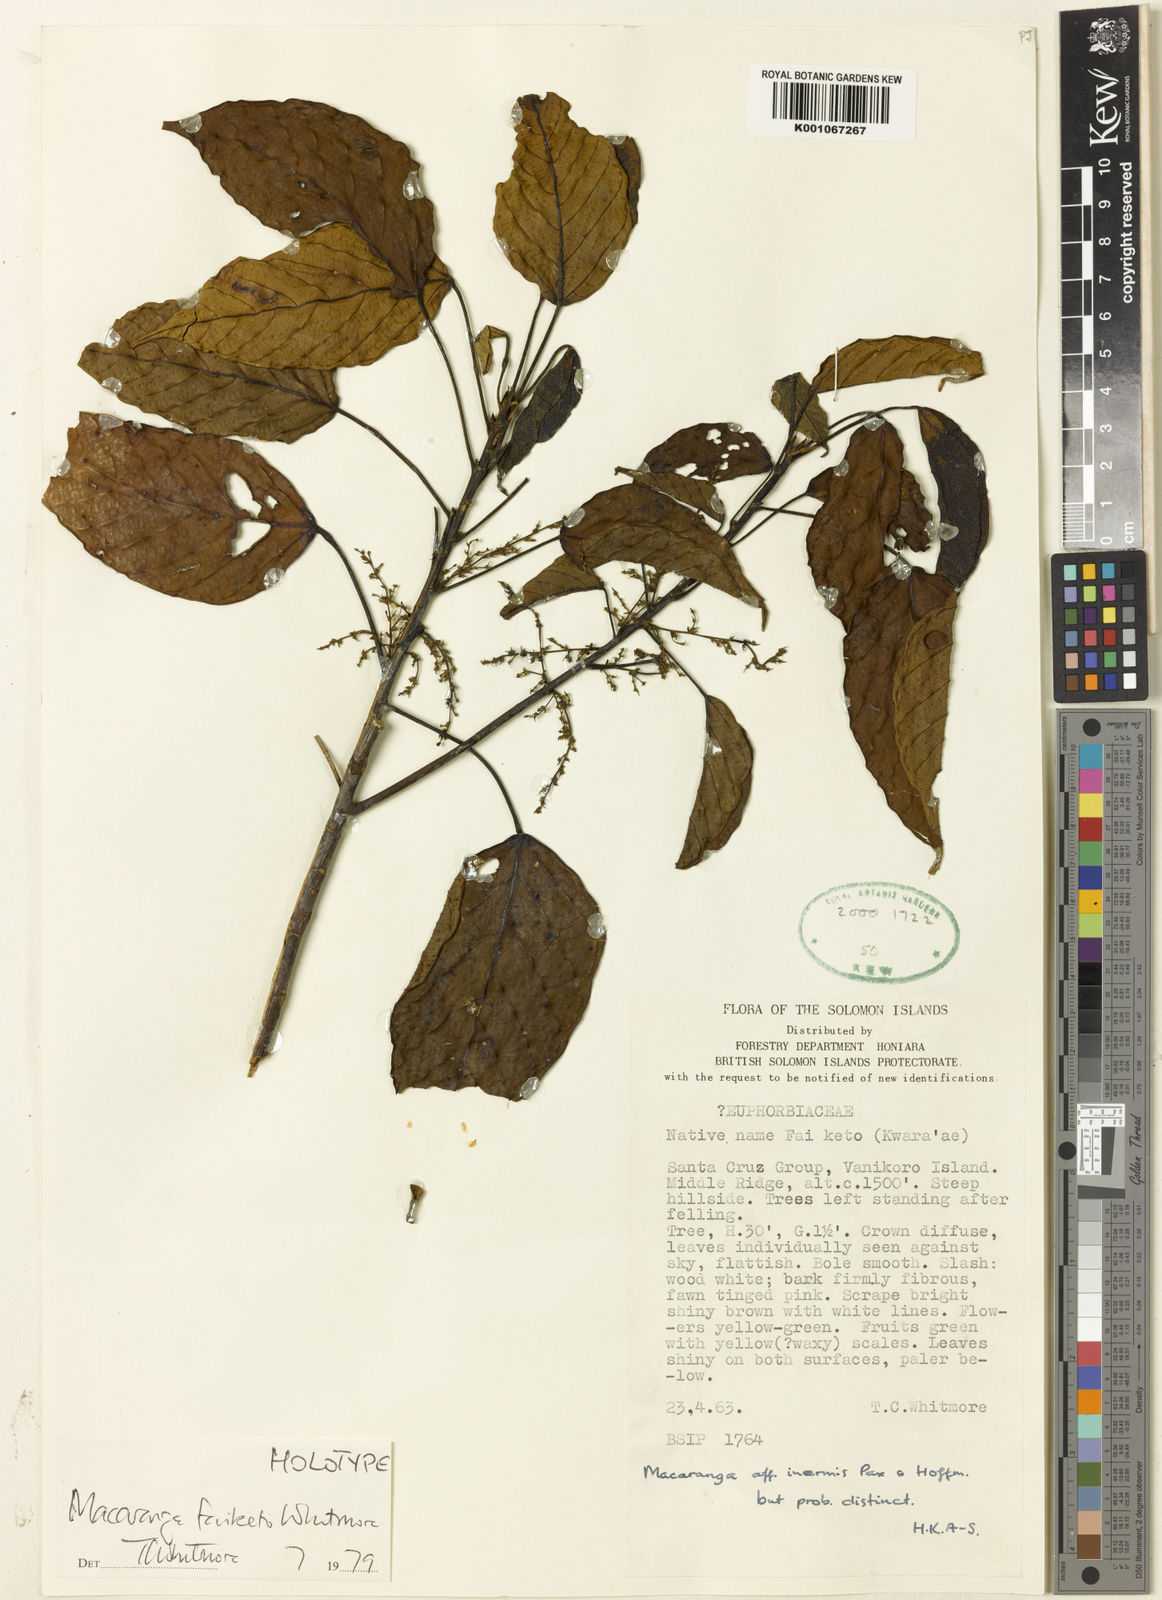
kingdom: Plantae
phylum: Tracheophyta
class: Magnoliopsida
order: Malpighiales
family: Euphorbiaceae
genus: Macaranga
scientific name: Macaranga faiketo
